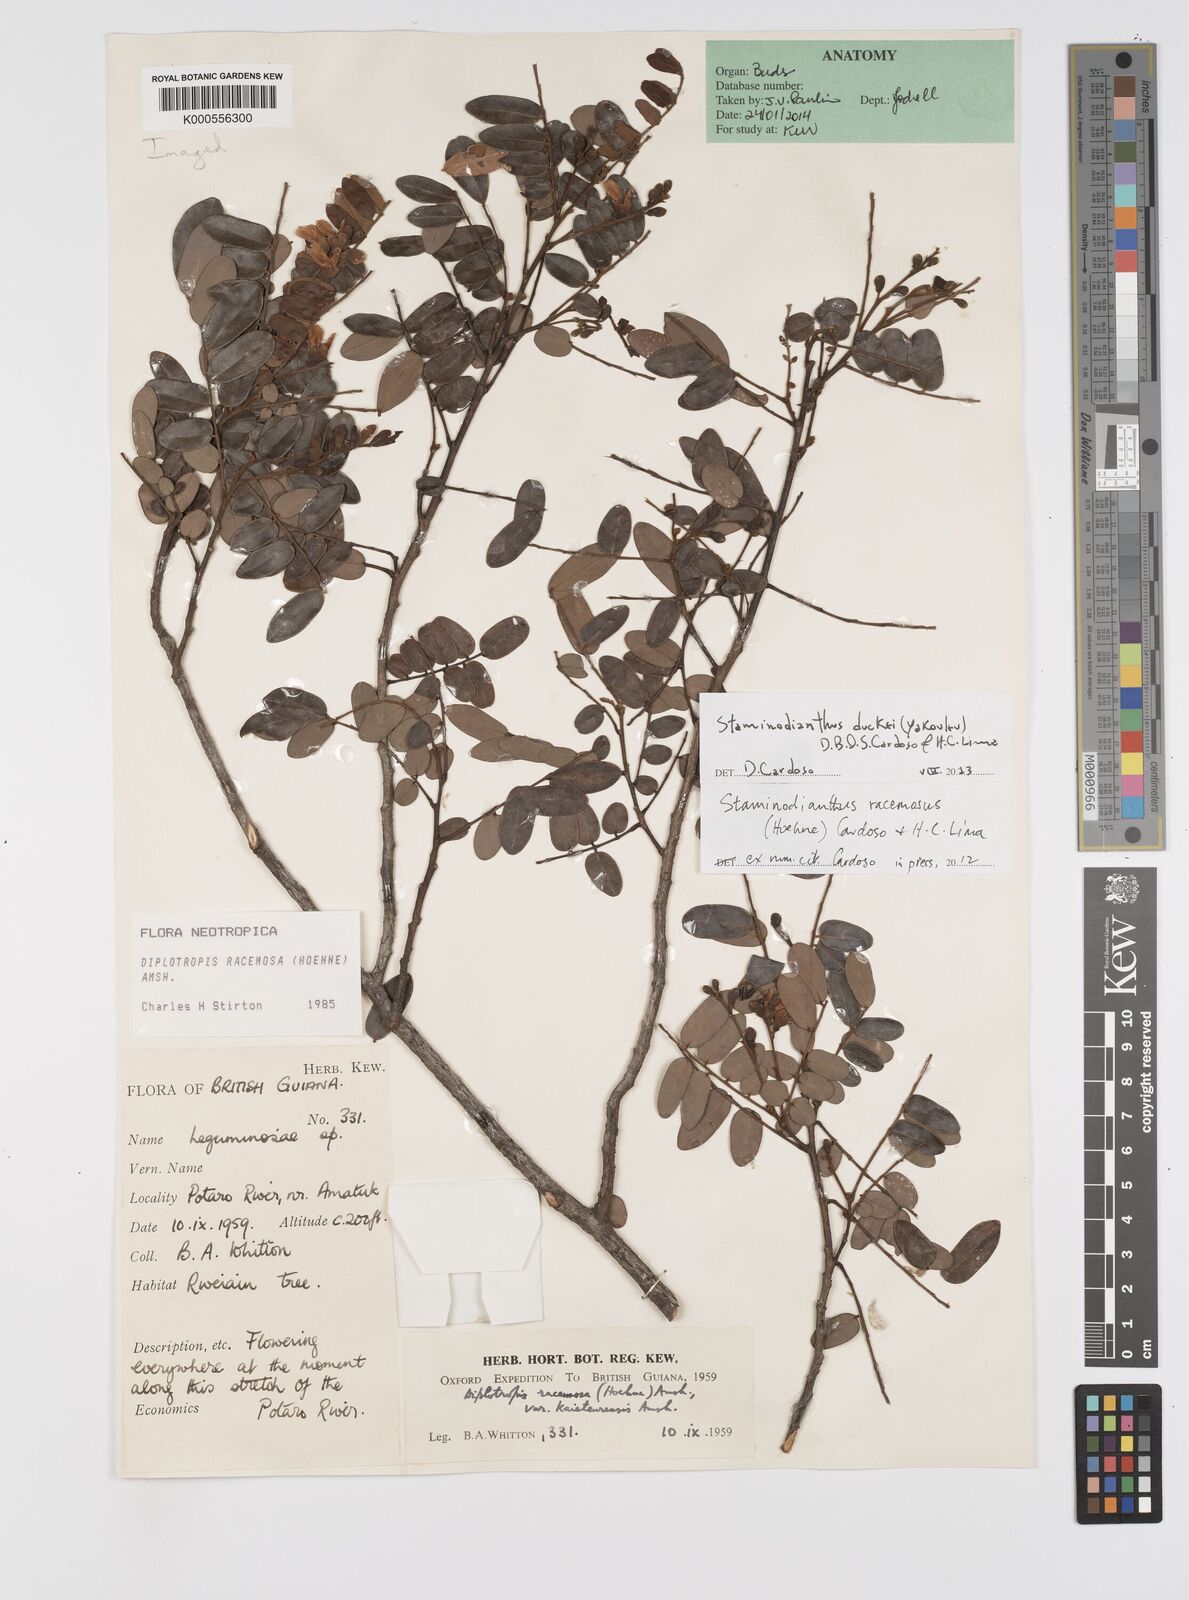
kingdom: Plantae
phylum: Tracheophyta
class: Magnoliopsida
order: Fabales
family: Fabaceae
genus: Staminodianthus
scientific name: Staminodianthus racemosus
